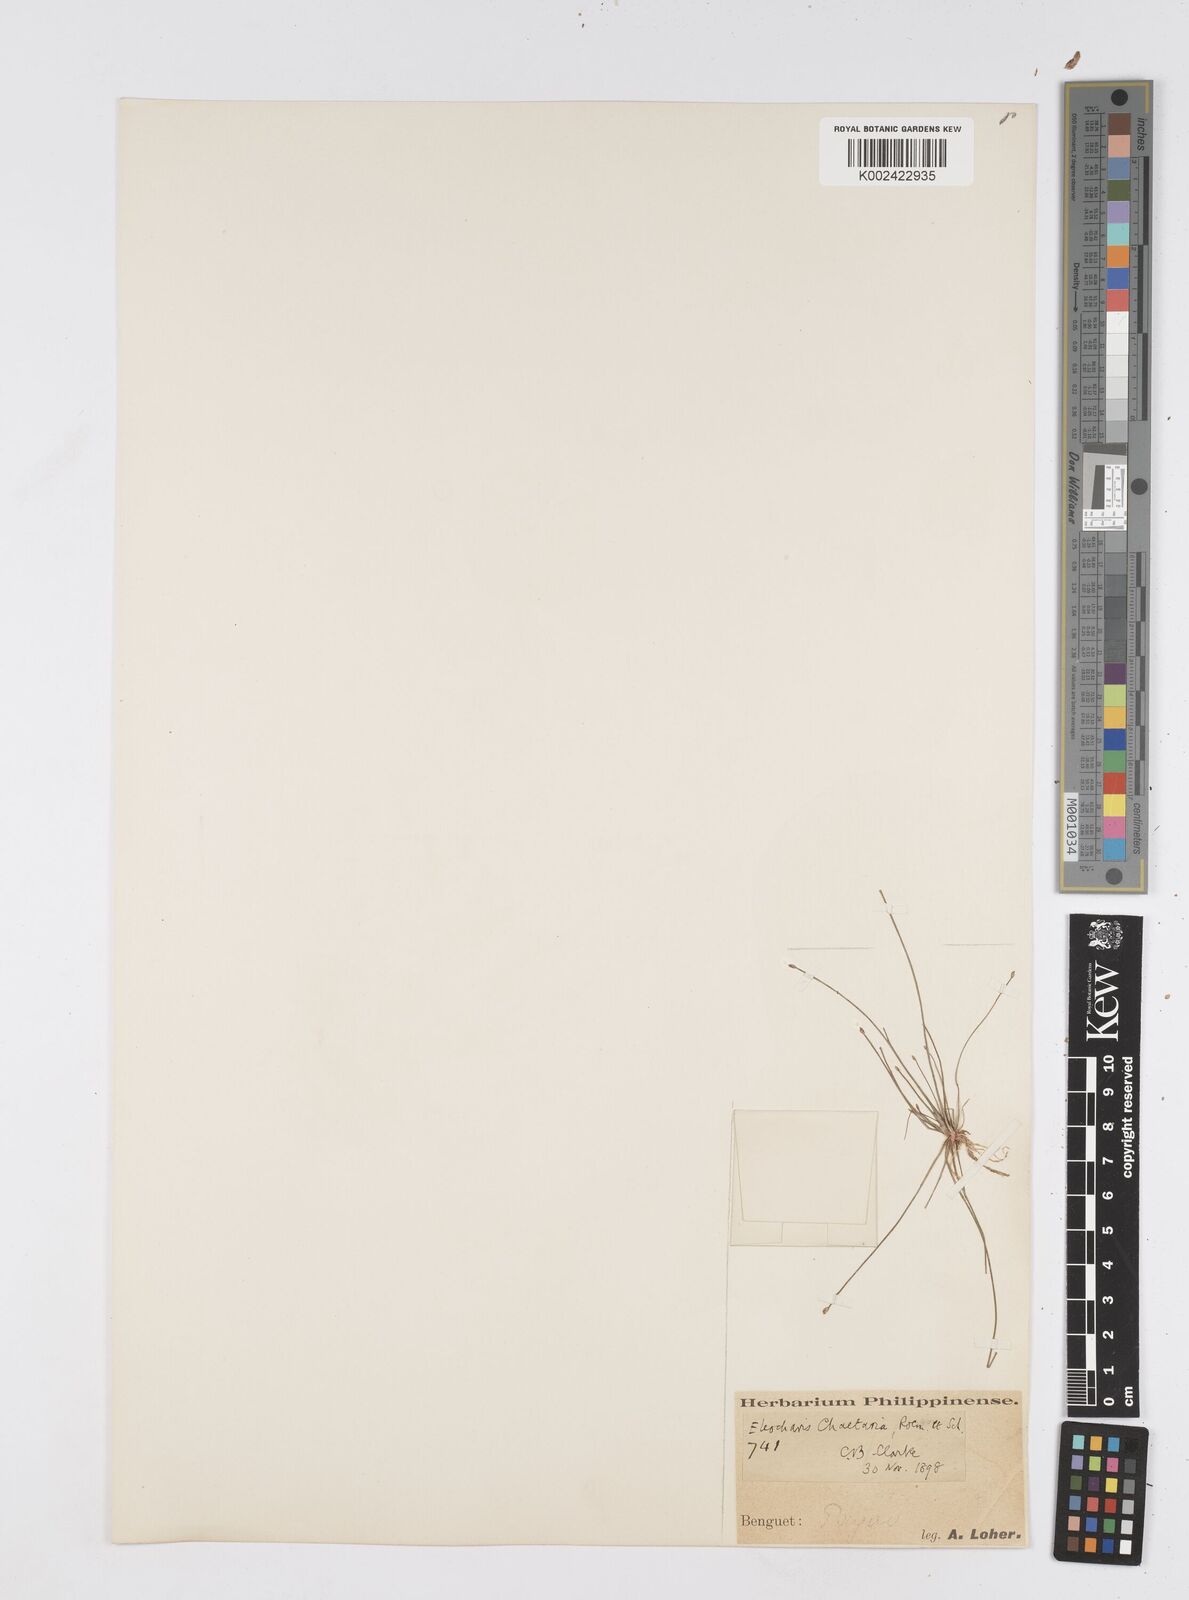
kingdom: Plantae
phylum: Tracheophyta
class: Liliopsida
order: Poales
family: Cyperaceae
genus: Eleocharis
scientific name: Eleocharis retroflexa
